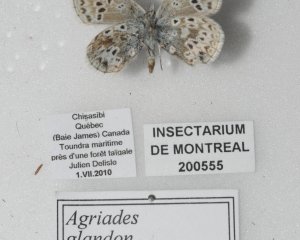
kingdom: Animalia
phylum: Arthropoda
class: Insecta
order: Lepidoptera
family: Lycaenidae
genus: Agriades
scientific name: Agriades glandon
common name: Arctic Blue
